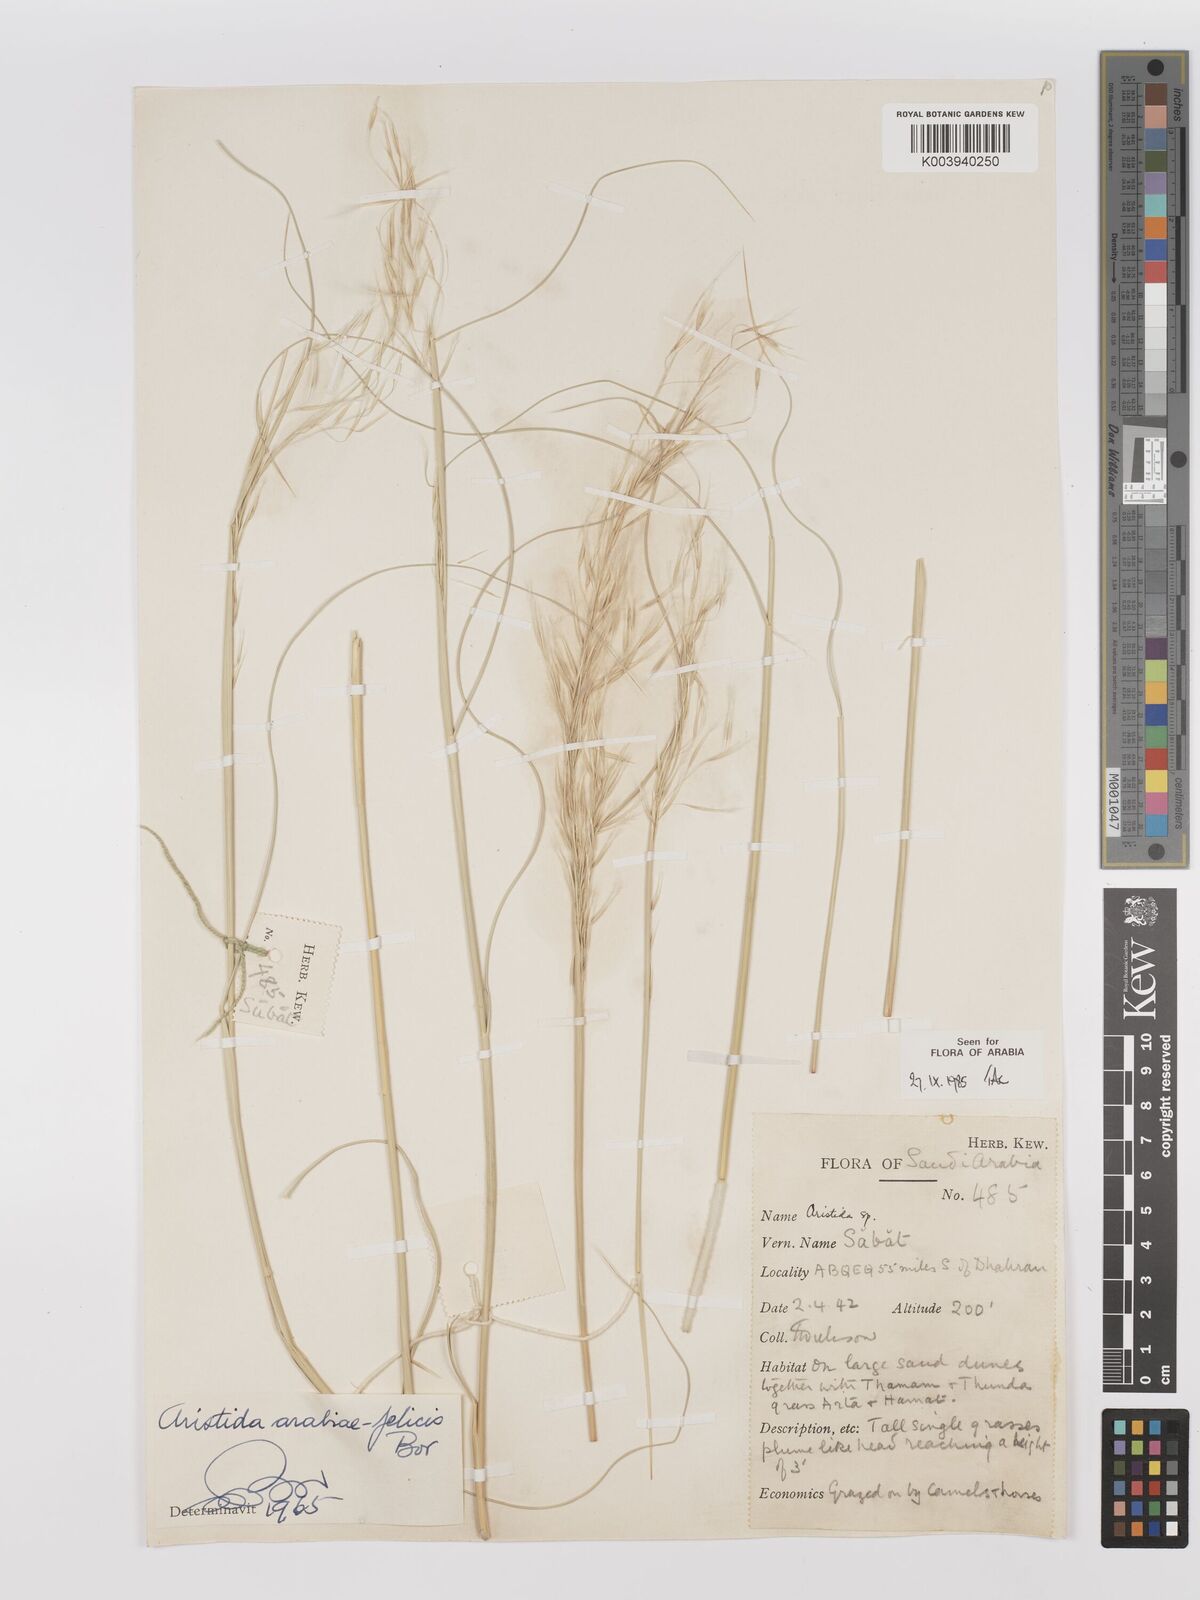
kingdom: Plantae
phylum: Tracheophyta
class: Liliopsida
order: Poales
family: Poaceae
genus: Stipagrostis
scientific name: Stipagrostis drarii
